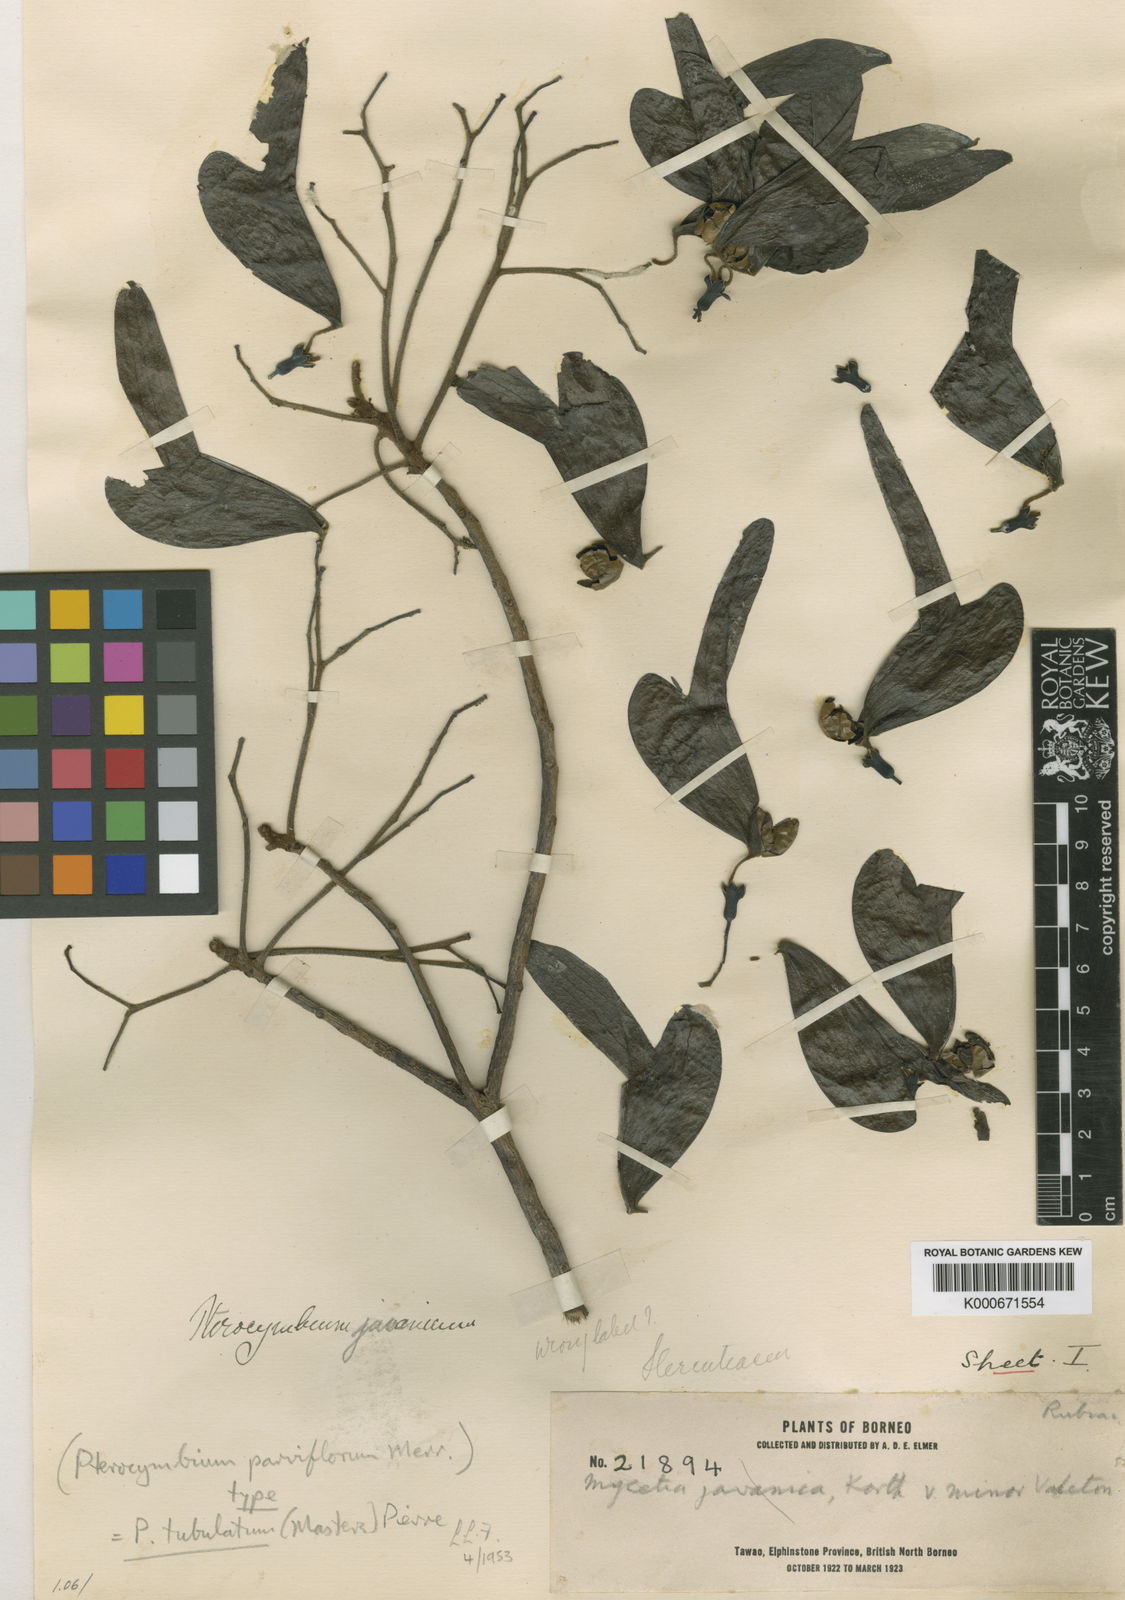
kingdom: Plantae
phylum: Tracheophyta
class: Magnoliopsida
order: Malvales
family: Malvaceae
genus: Pterocymbium
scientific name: Pterocymbium tubulatum
